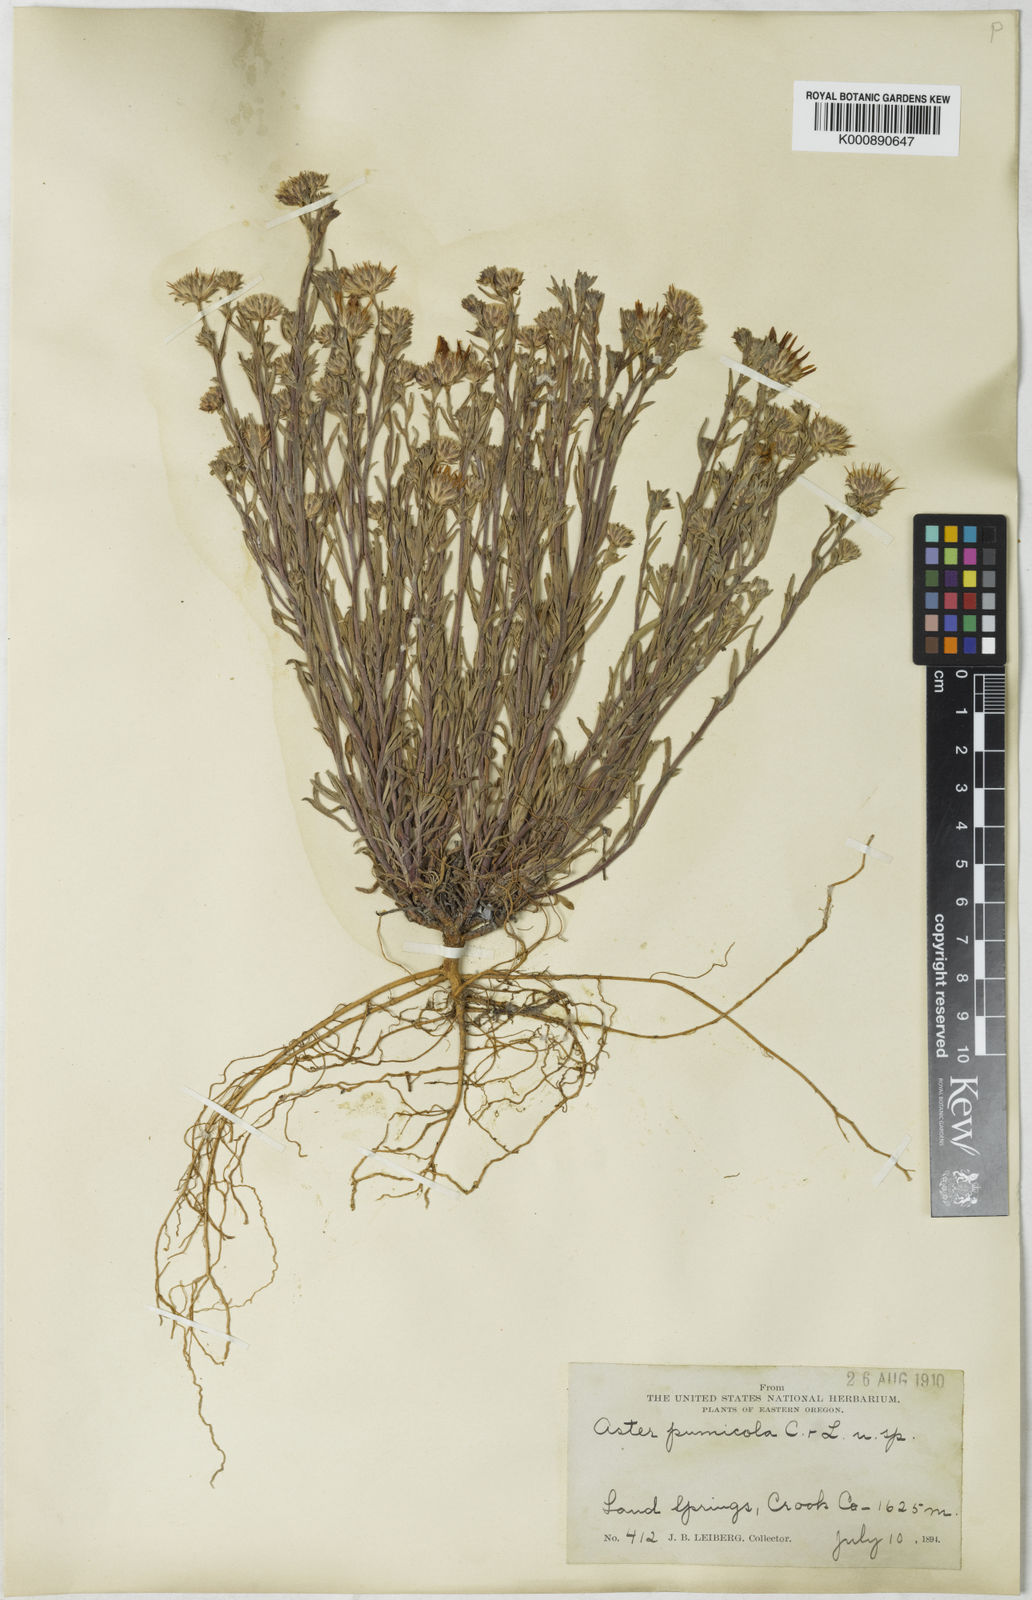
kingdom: Plantae
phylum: Tracheophyta
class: Magnoliopsida
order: Asterales
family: Asteraceae
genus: Aster
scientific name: Aster
